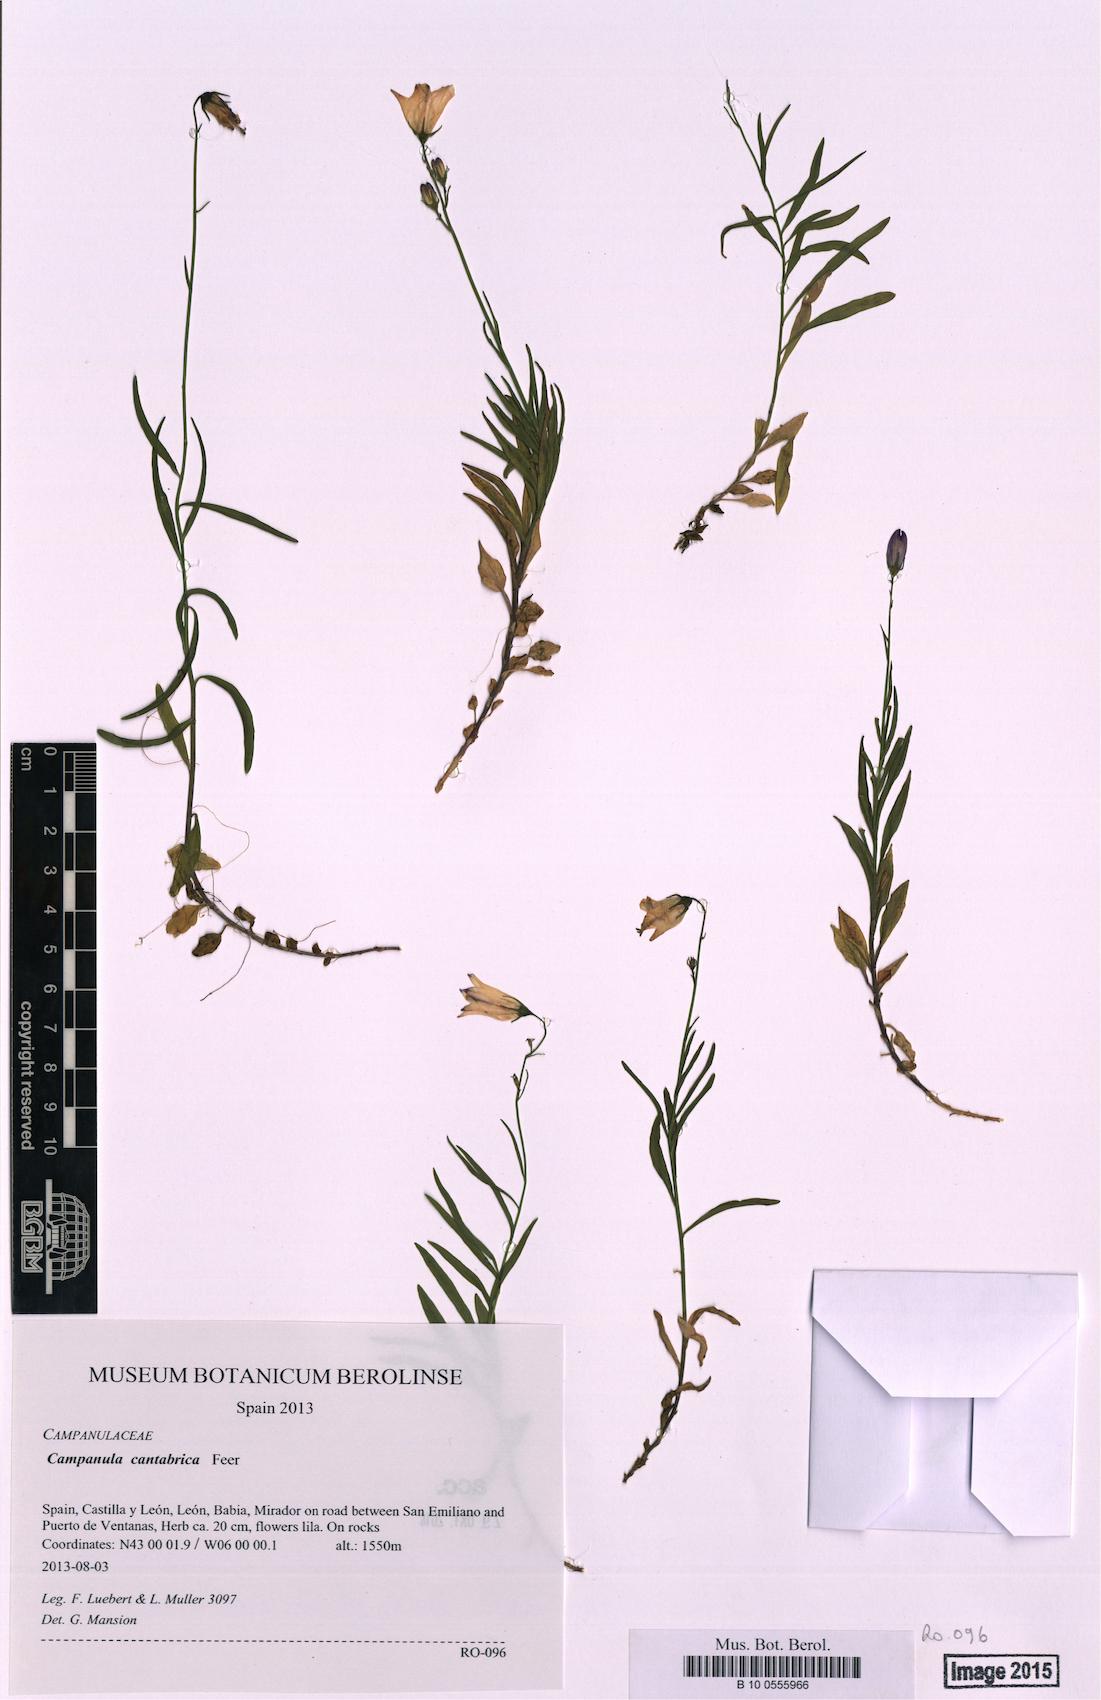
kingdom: Plantae
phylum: Tracheophyta
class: Magnoliopsida
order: Asterales
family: Campanulaceae
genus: Campanula
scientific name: Campanula cantabrica
